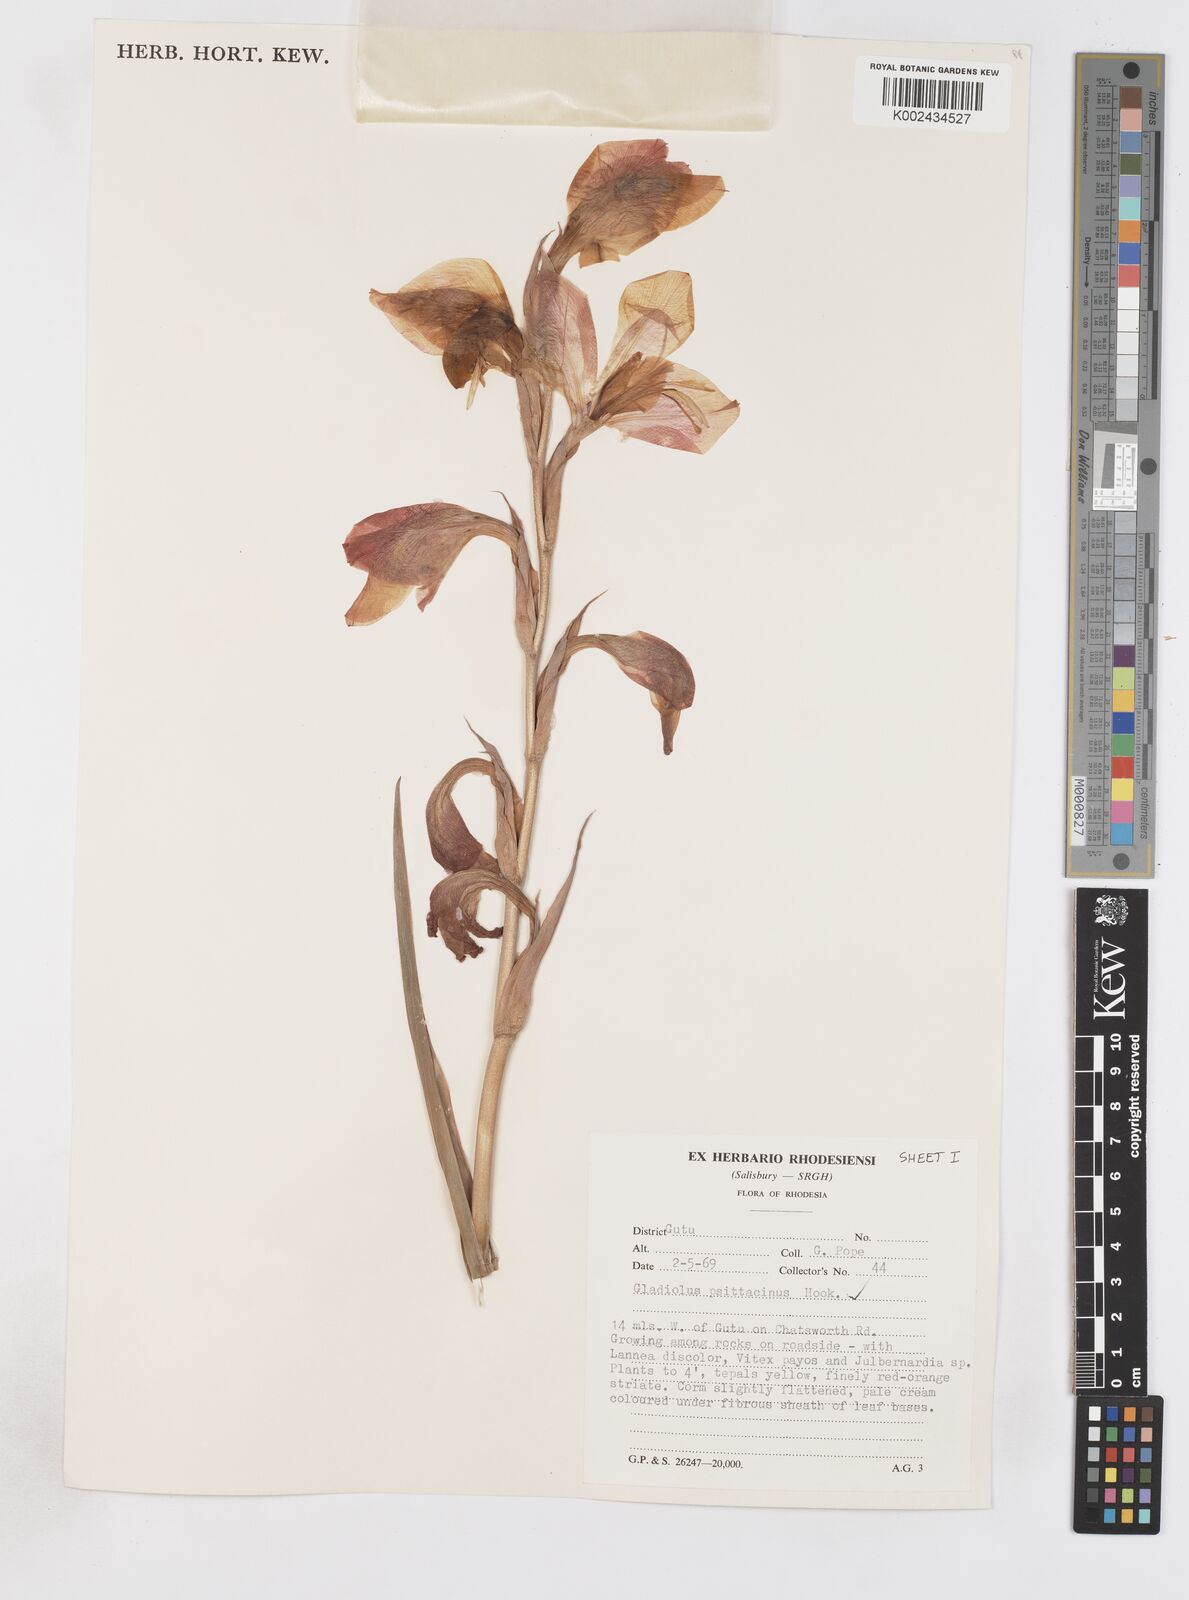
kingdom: Plantae
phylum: Tracheophyta
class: Liliopsida
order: Asparagales
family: Iridaceae
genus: Gladiolus
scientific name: Gladiolus dalenii
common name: Cornflag
